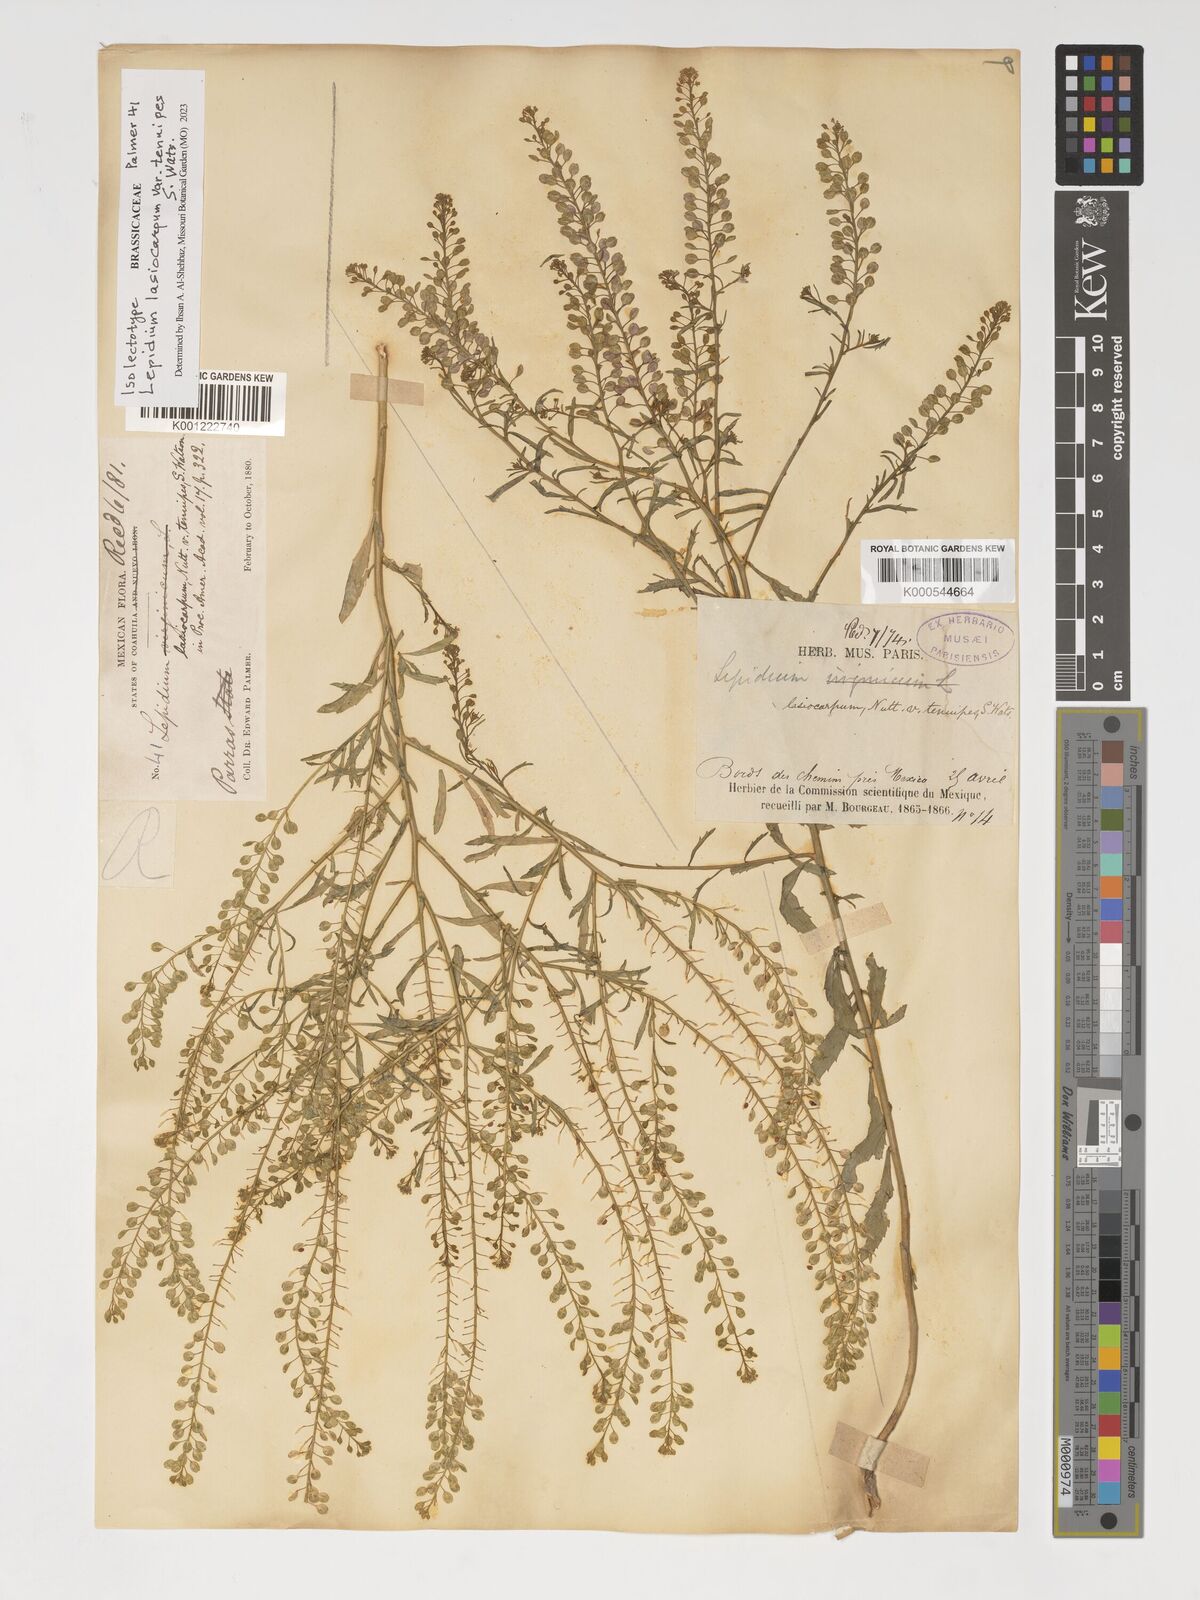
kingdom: Plantae
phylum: Tracheophyta
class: Magnoliopsida
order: Brassicales
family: Brassicaceae
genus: Lepidium
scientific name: Lepidium lasiocarpum
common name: Hairy-pod pepperwort
